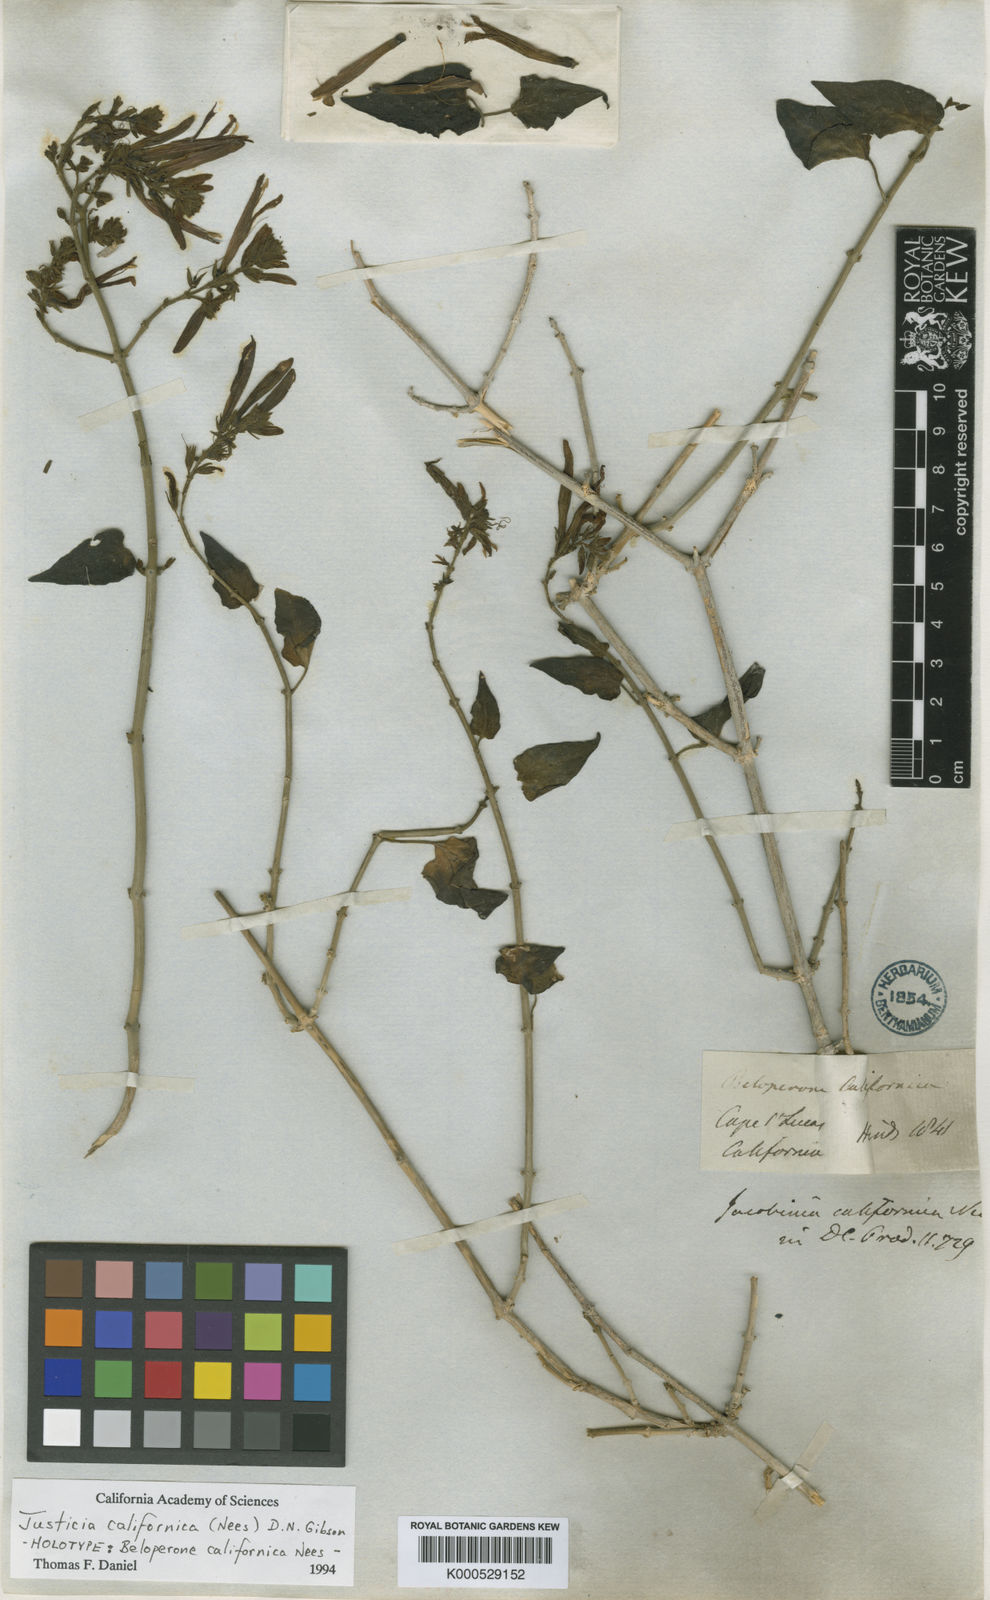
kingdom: Plantae
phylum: Tracheophyta
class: Magnoliopsida
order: Lamiales
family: Acanthaceae
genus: Justicia
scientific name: Justicia californica
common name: Chuparosa-honeysuckle
